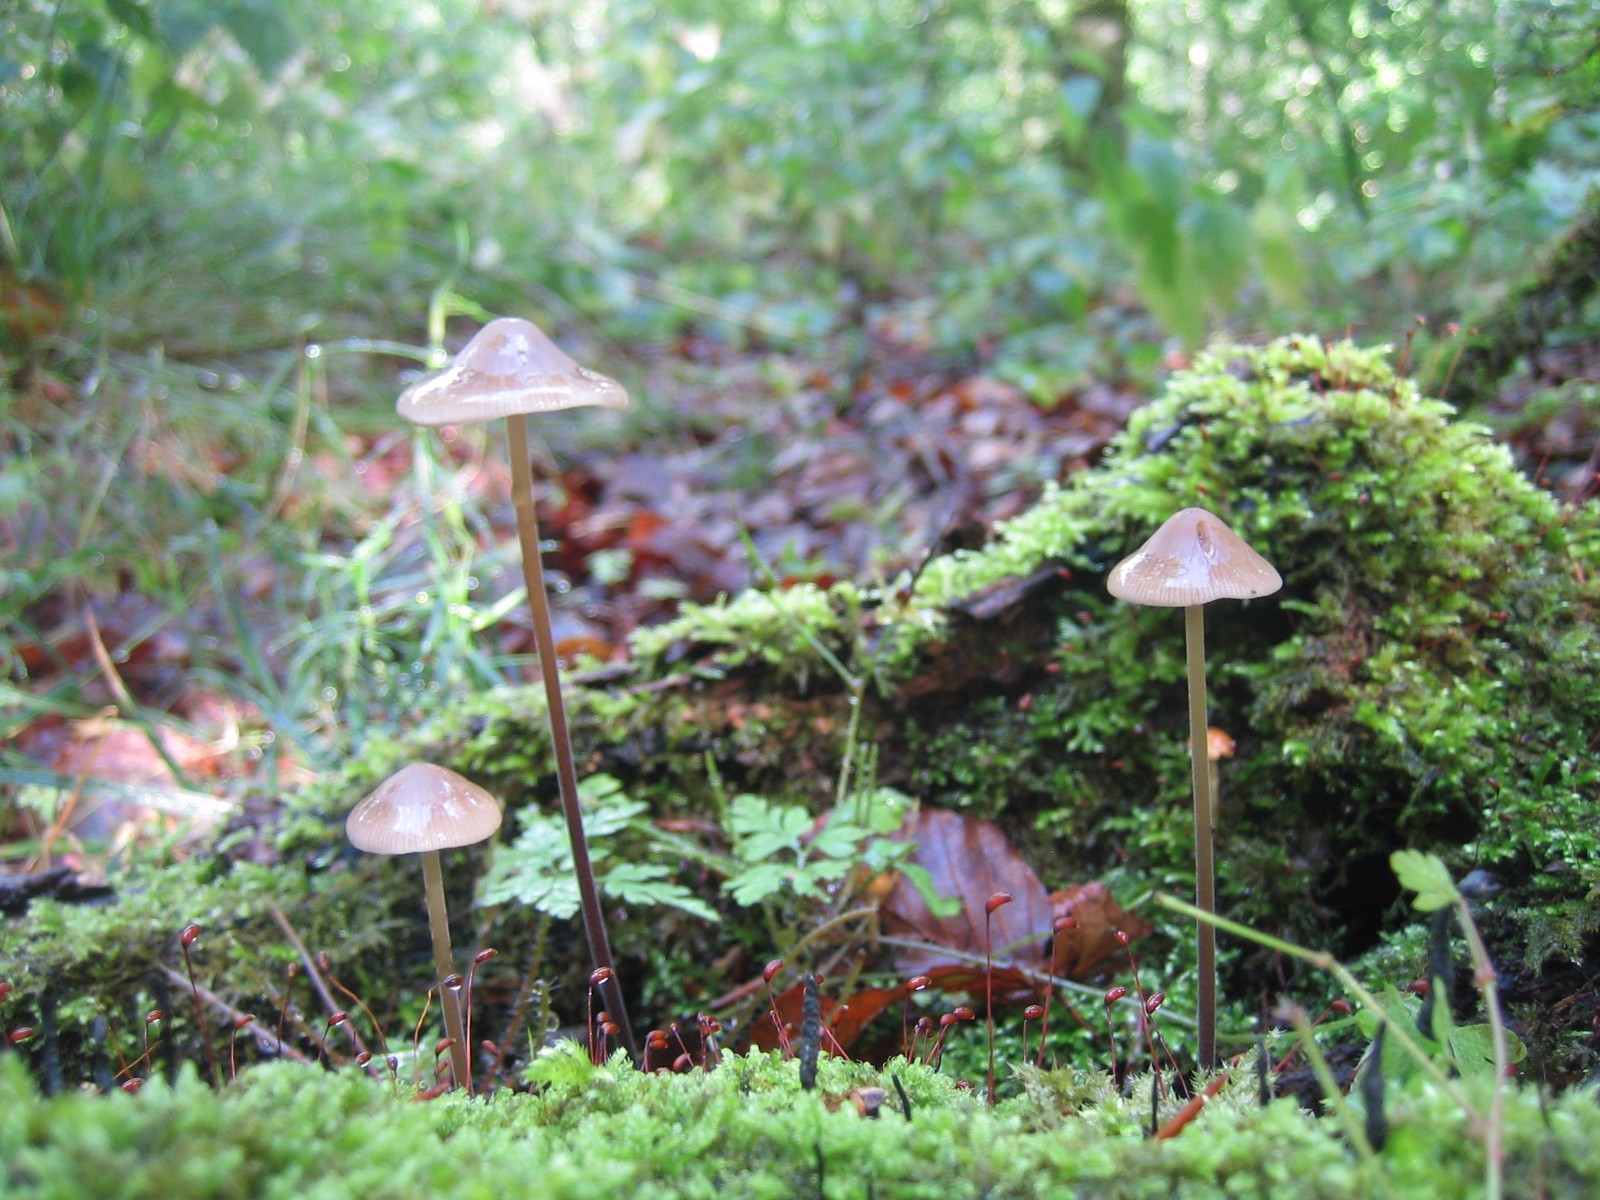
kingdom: Fungi
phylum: Basidiomycota
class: Agaricomycetes
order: Agaricales
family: Omphalotaceae
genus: Mycetinis
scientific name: Mycetinis alliaceus
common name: stor løghat
